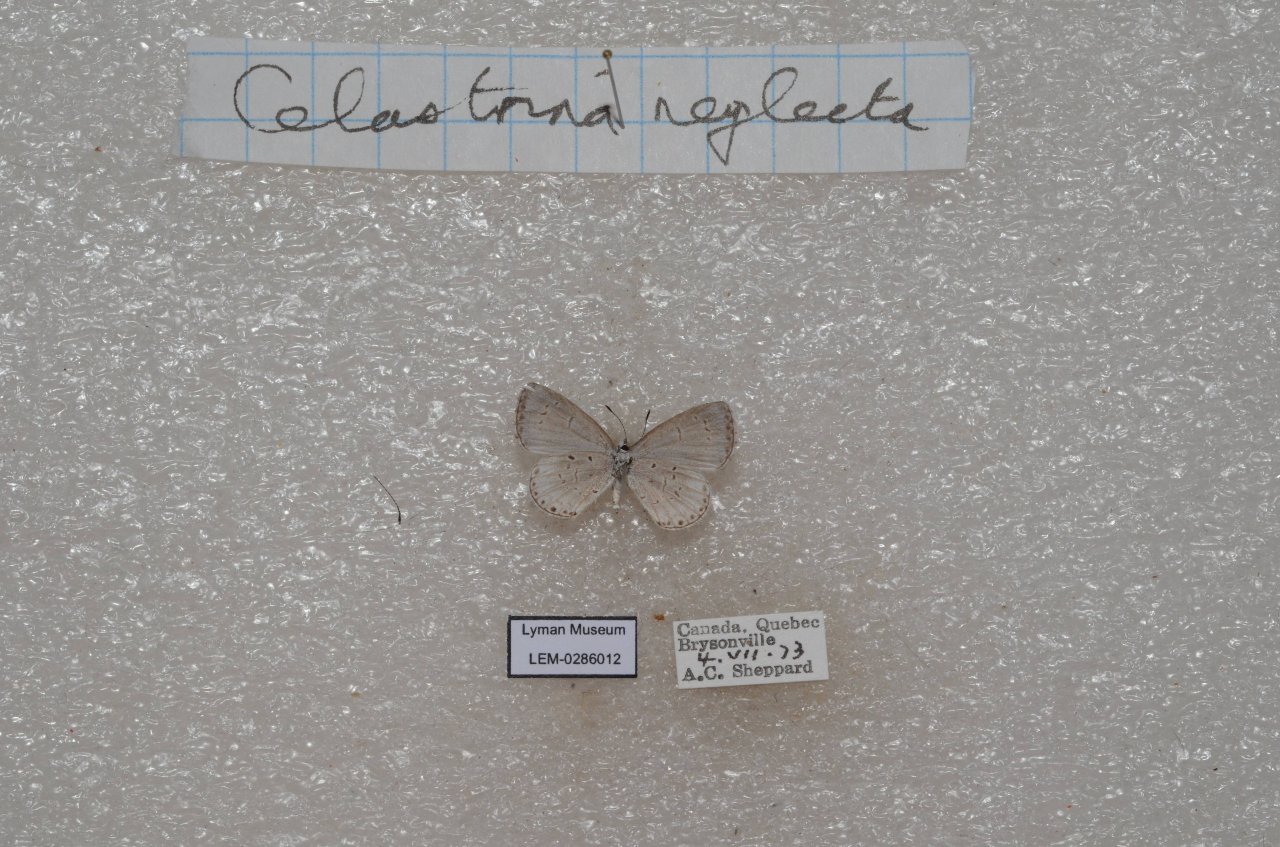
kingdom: Animalia
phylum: Arthropoda
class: Insecta
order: Lepidoptera
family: Lycaenidae
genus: Celastrina
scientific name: Celastrina lucia
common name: Northern Spring Azure
